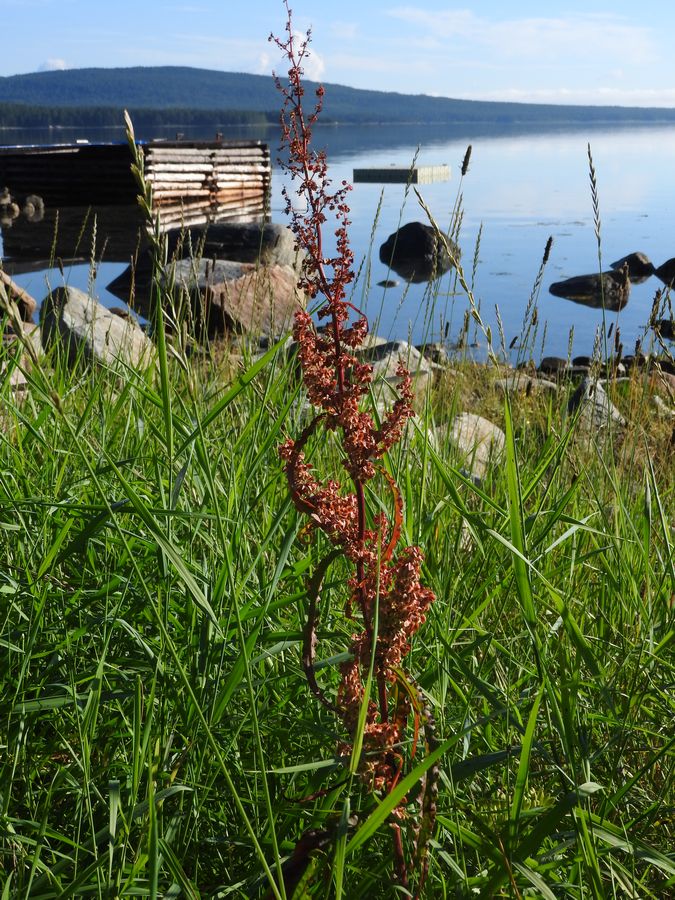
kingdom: Plantae
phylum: Tracheophyta
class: Magnoliopsida
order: Caryophyllales
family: Polygonaceae
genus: Rumex
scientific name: Rumex pseudonatronatus
